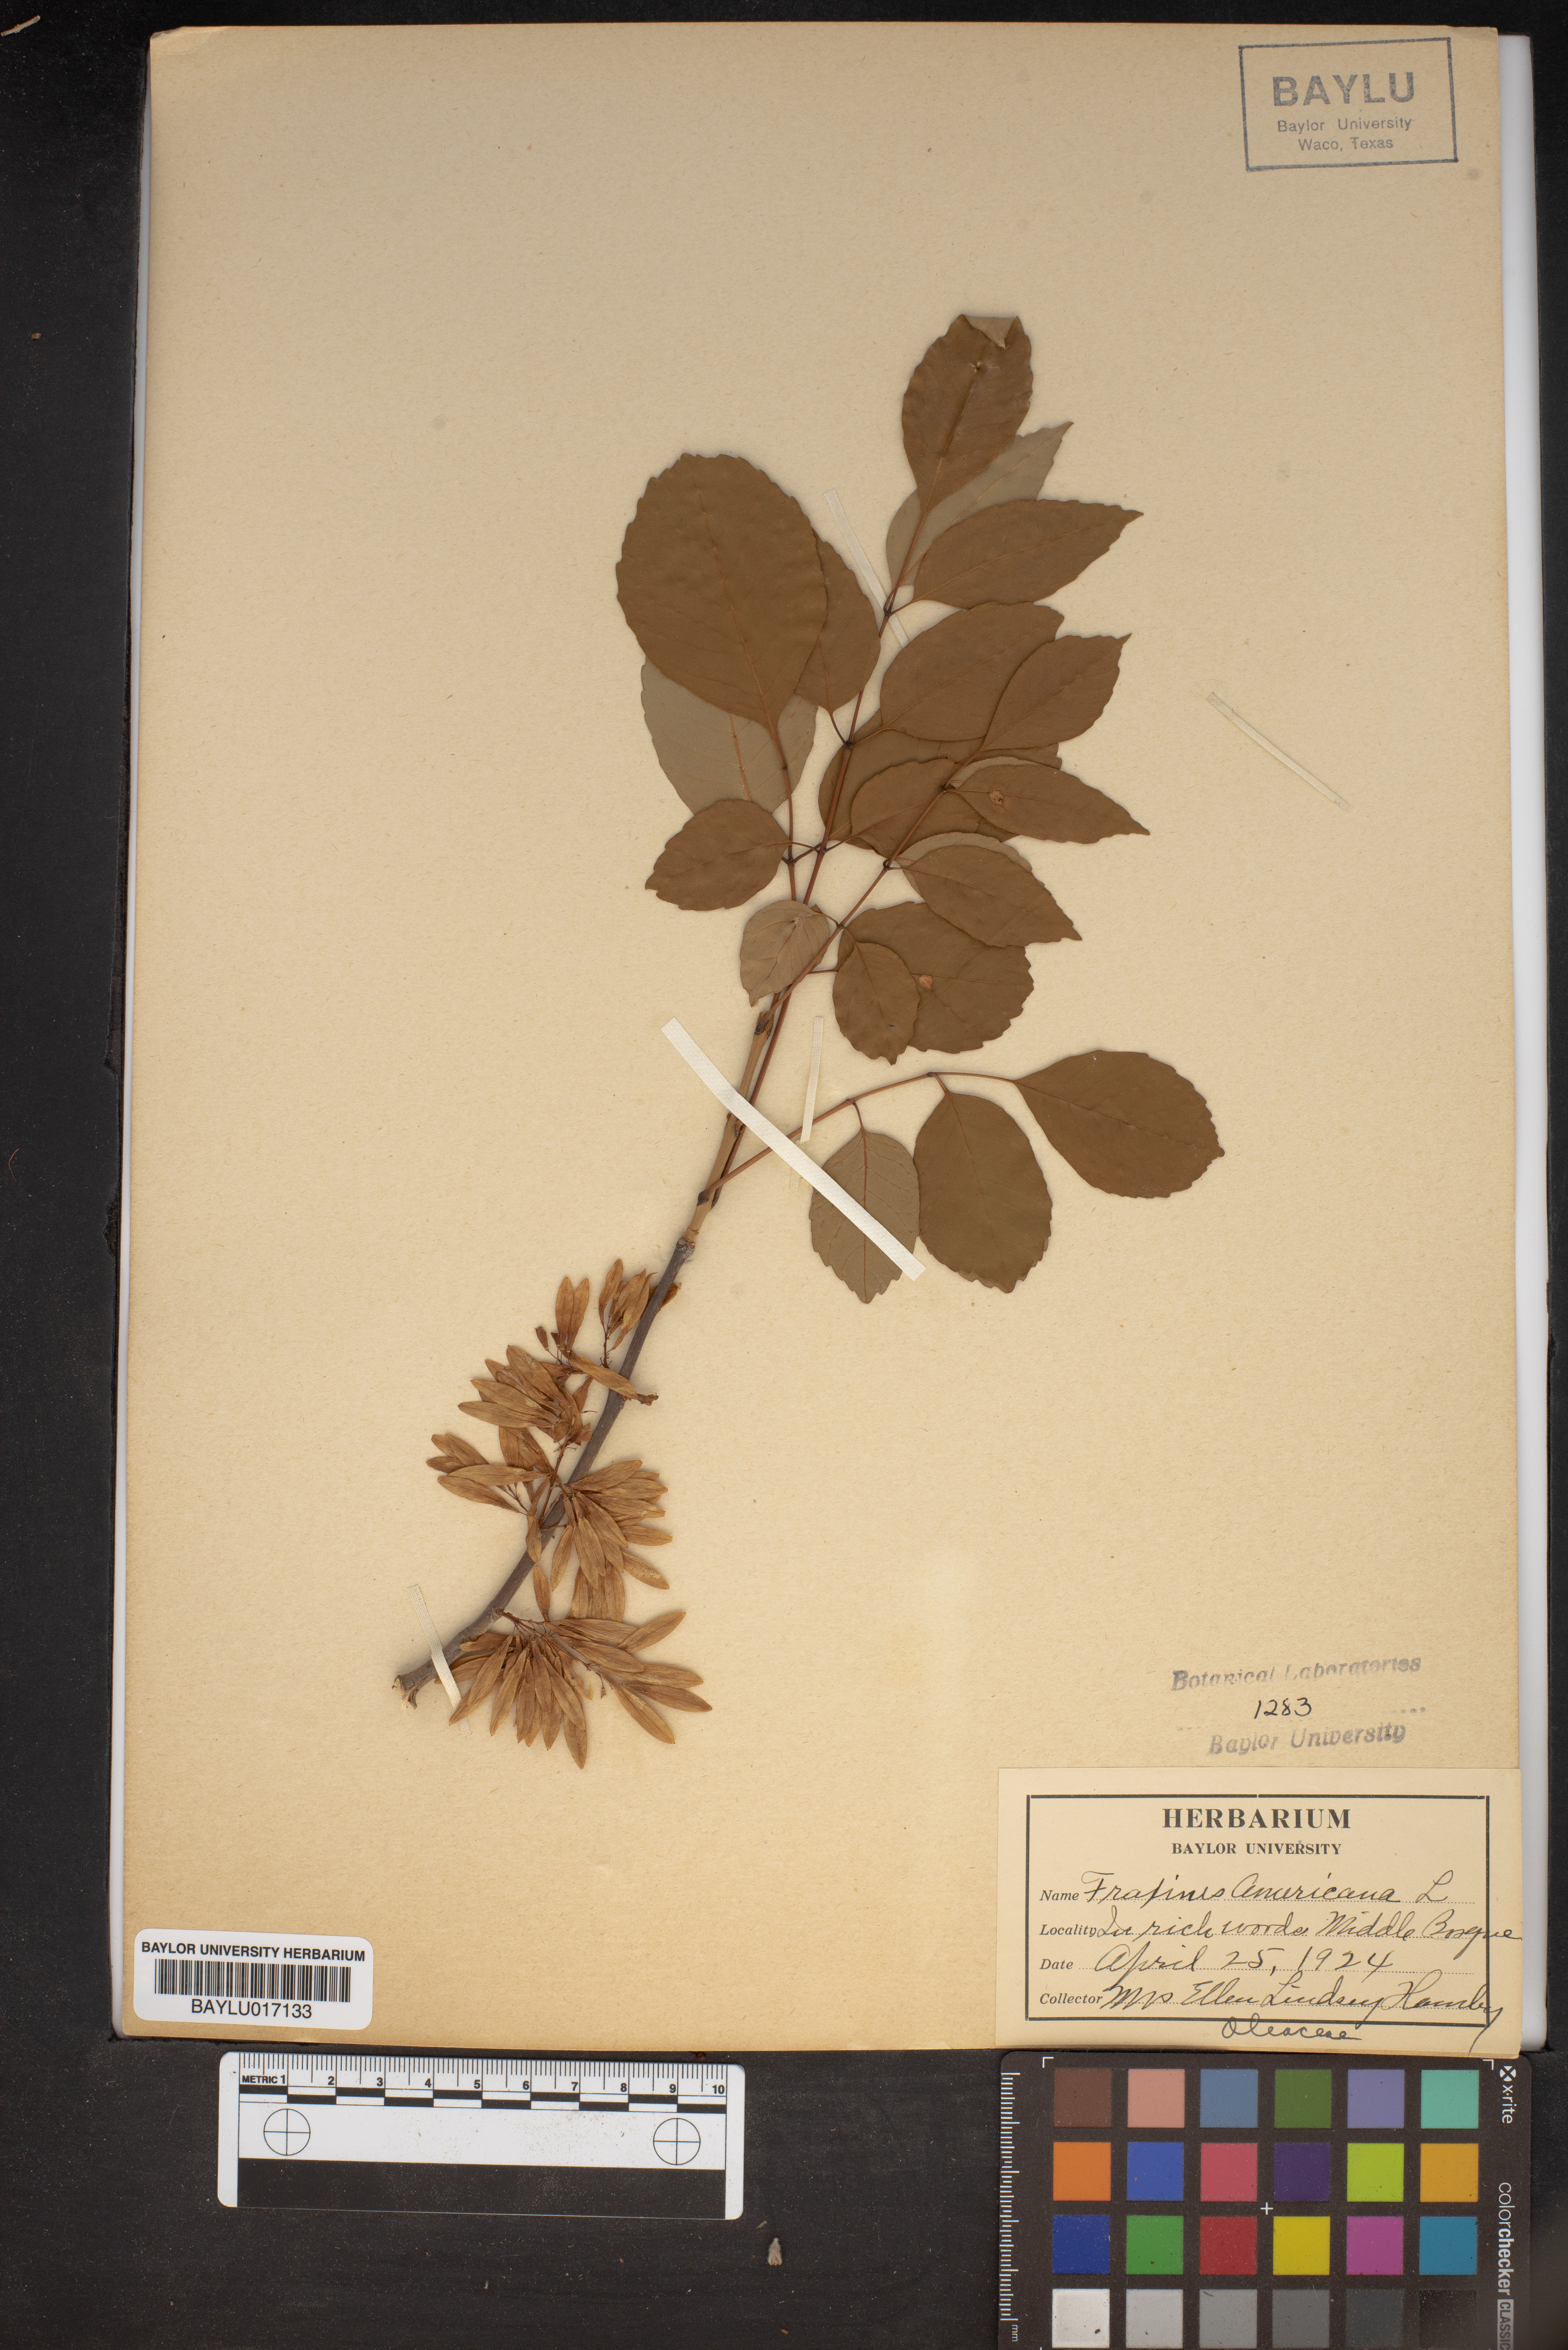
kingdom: Plantae
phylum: Tracheophyta
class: Magnoliopsida
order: Lamiales
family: Oleaceae
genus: Fraxinus
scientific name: Fraxinus americana
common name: White ash
